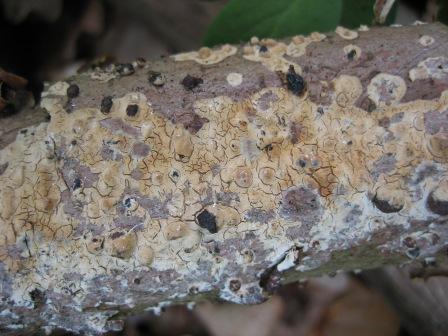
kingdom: Fungi
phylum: Basidiomycota
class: Agaricomycetes
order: Russulales
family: Peniophoraceae
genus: Peniophora
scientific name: Peniophora incarnata
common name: laksefarvet voksskind
